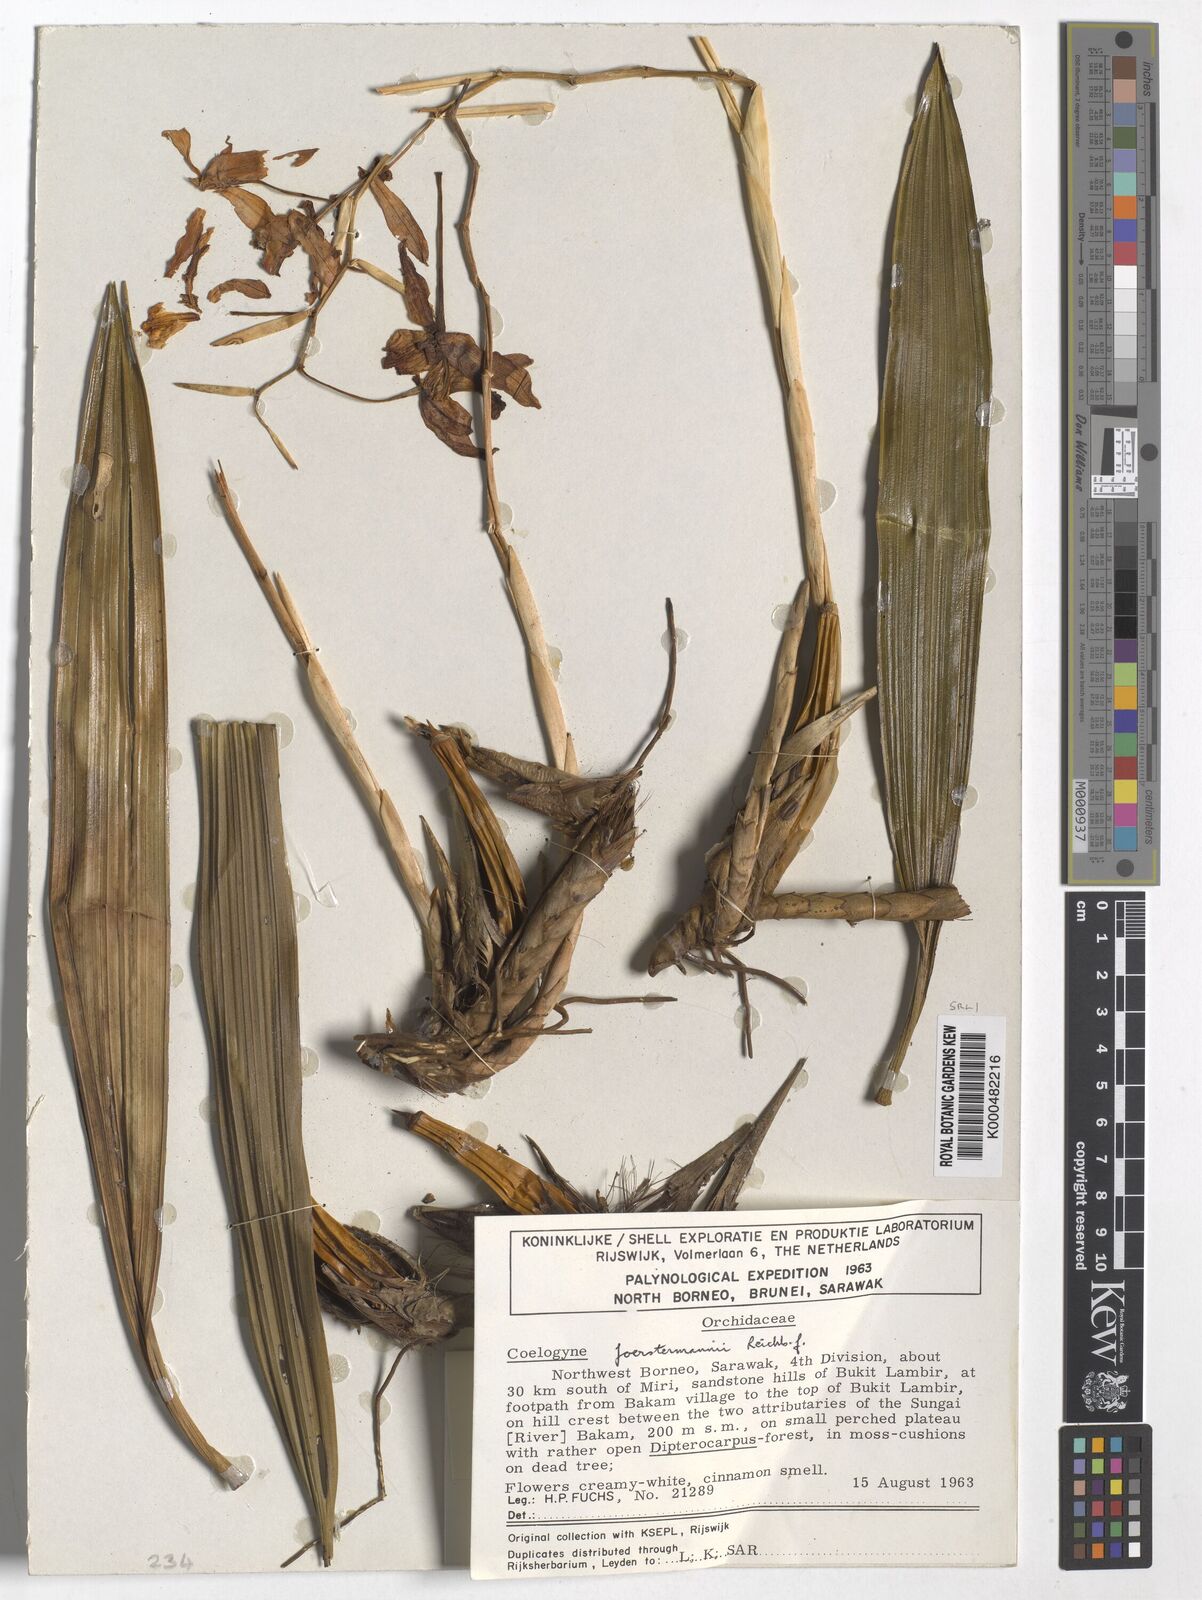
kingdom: Plantae
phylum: Tracheophyta
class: Liliopsida
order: Asparagales
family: Orchidaceae
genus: Coelogyne
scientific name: Coelogyne
